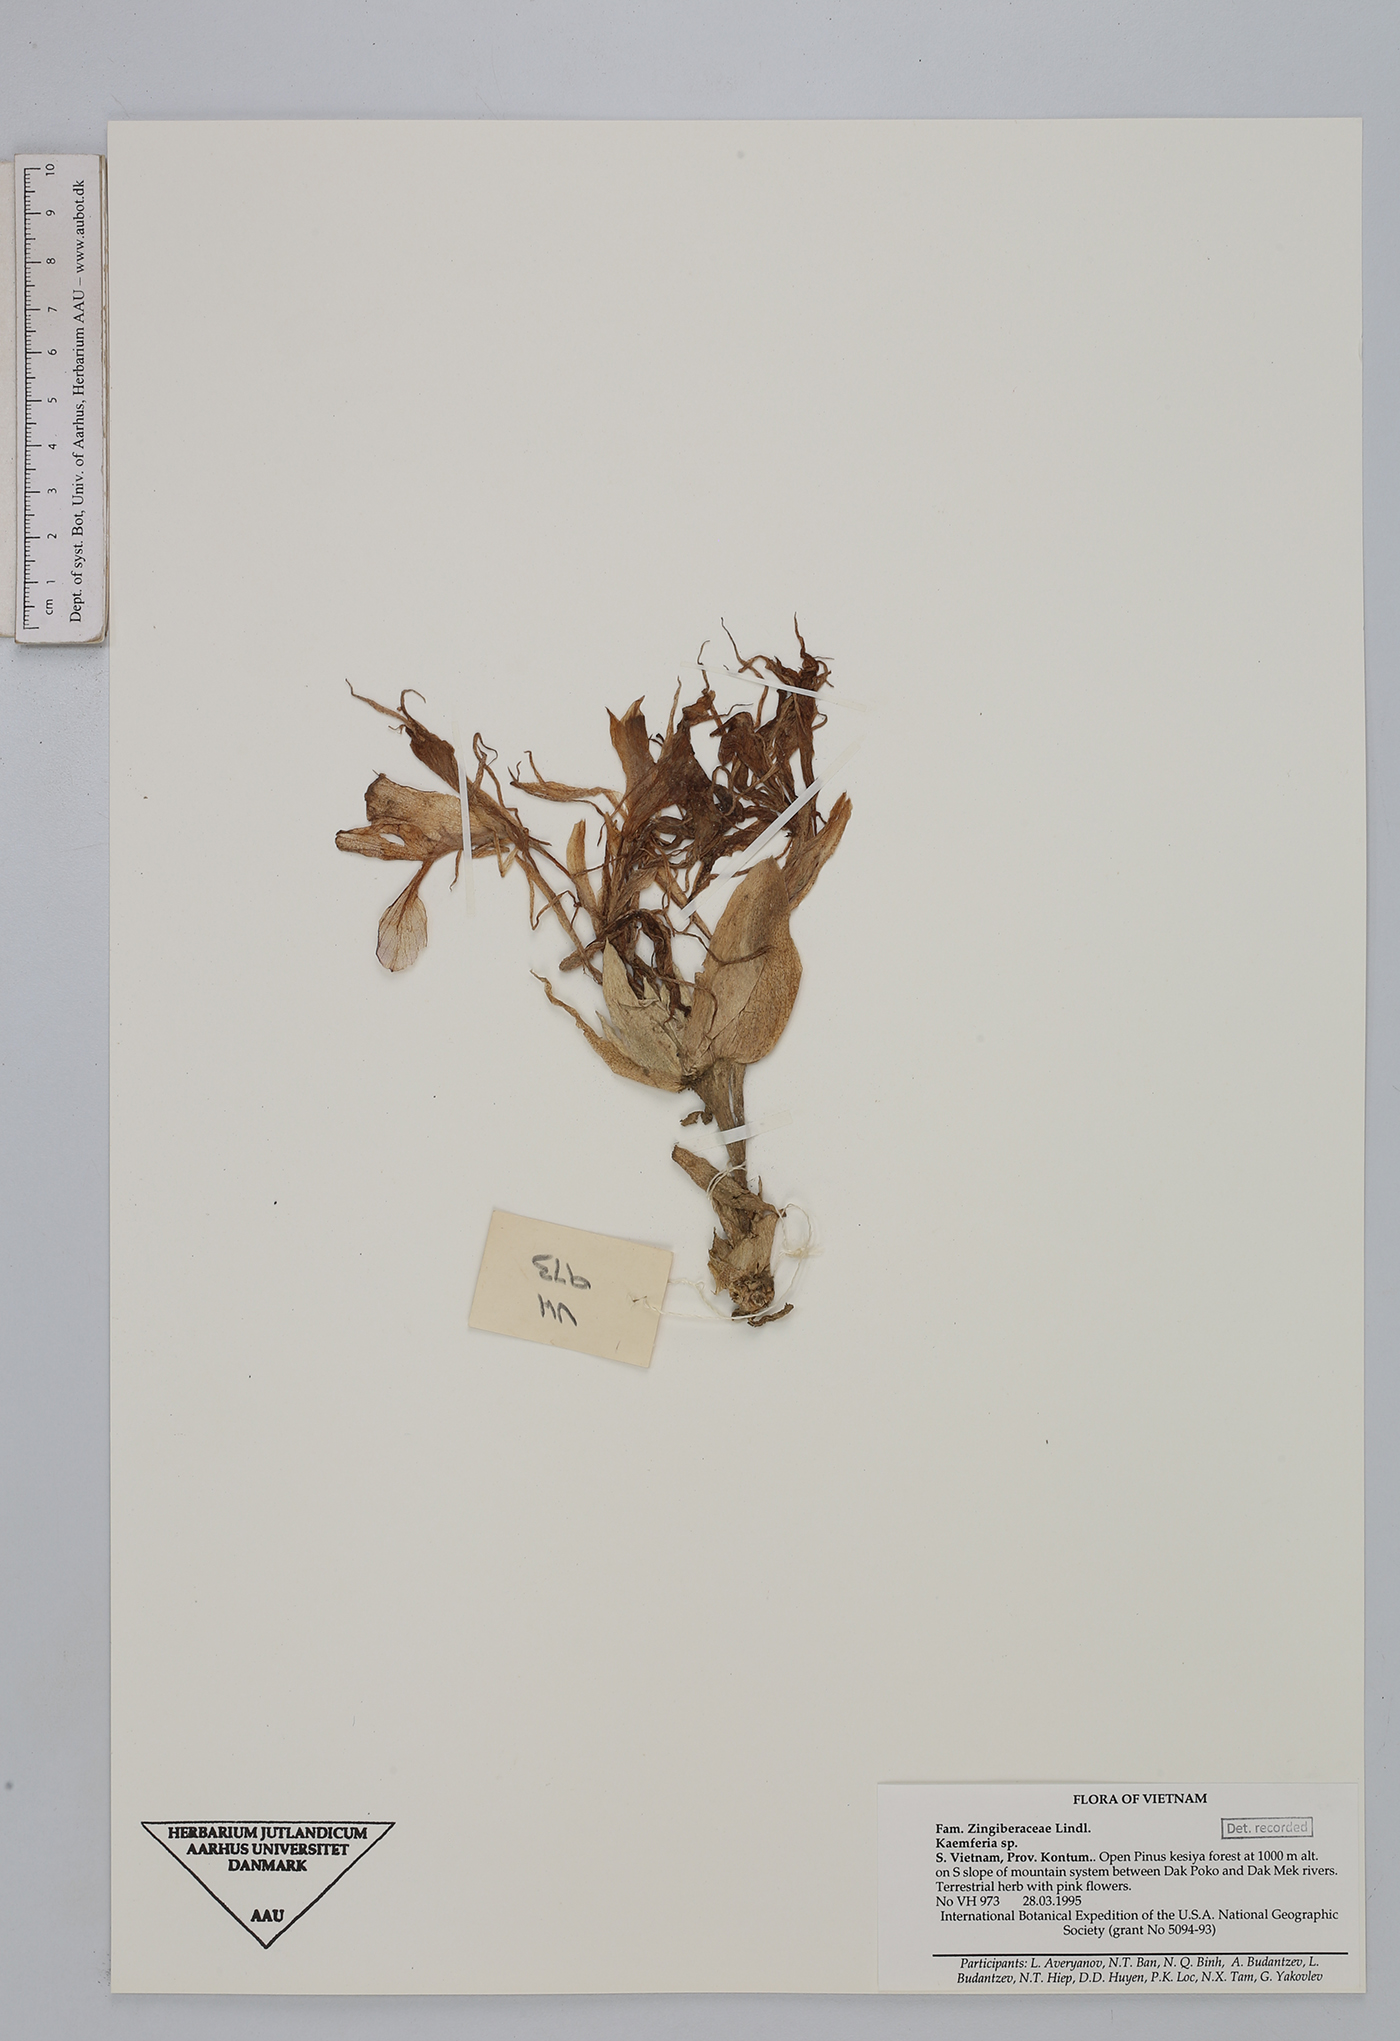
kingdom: Plantae
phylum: Tracheophyta
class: Liliopsida
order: Zingiberales
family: Zingiberaceae
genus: Kaempferia
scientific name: Kaempferia
